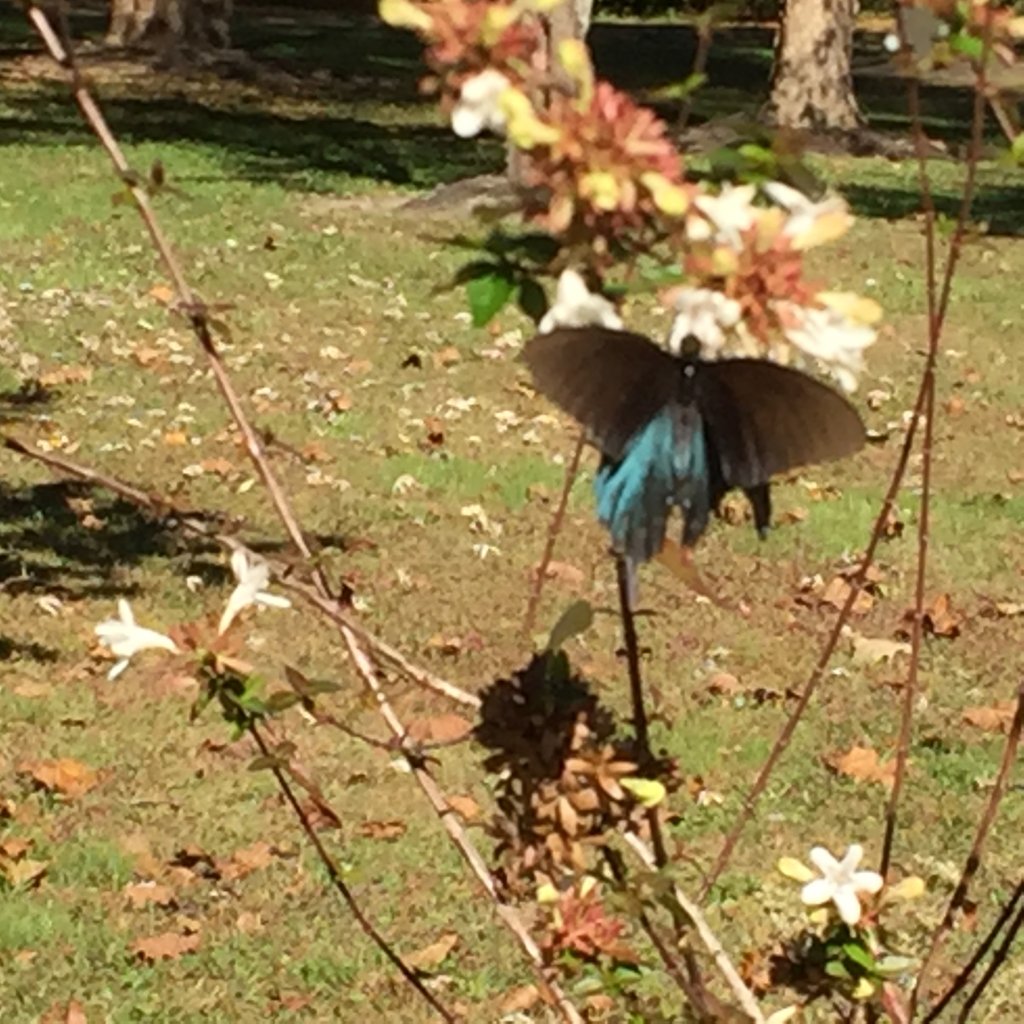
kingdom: Animalia
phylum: Arthropoda
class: Insecta
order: Lepidoptera
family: Papilionidae
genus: Battus
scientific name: Battus philenor
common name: Pipevine Swallowtail
